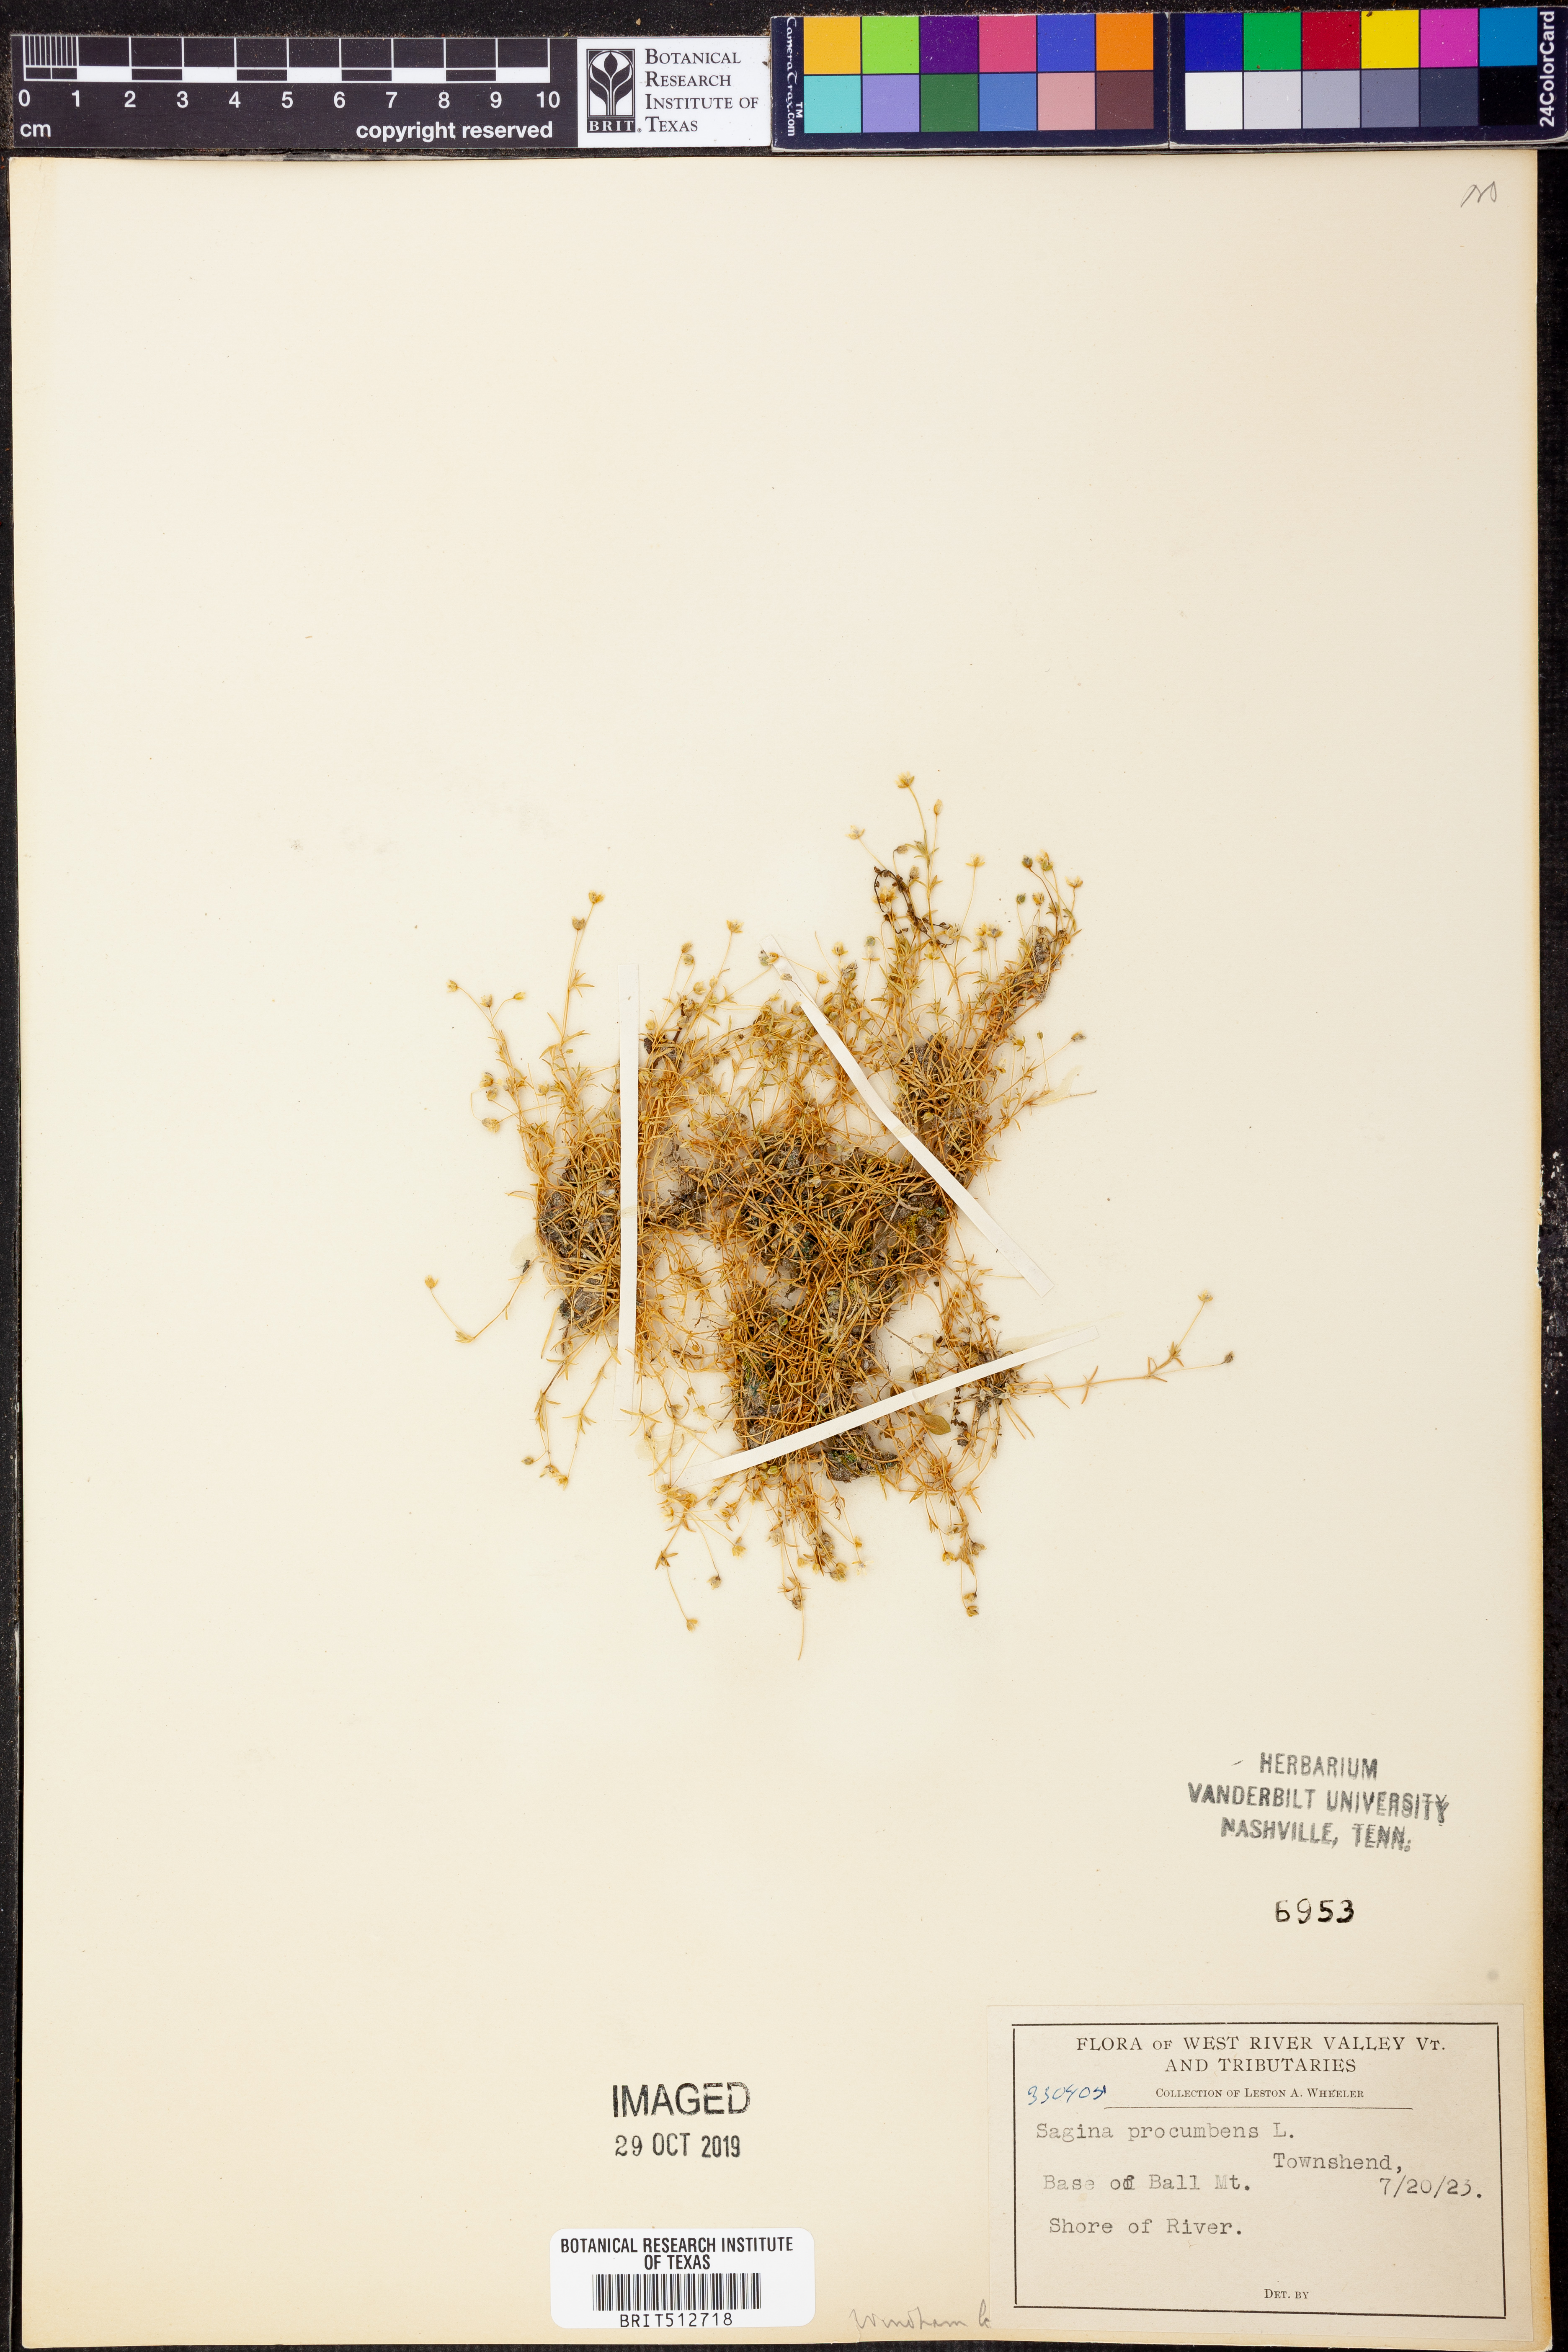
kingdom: Plantae
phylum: Tracheophyta
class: Magnoliopsida
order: Caryophyllales
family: Caryophyllaceae
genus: Sagina
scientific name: Sagina procumbens
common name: Procumbent pearlwort
